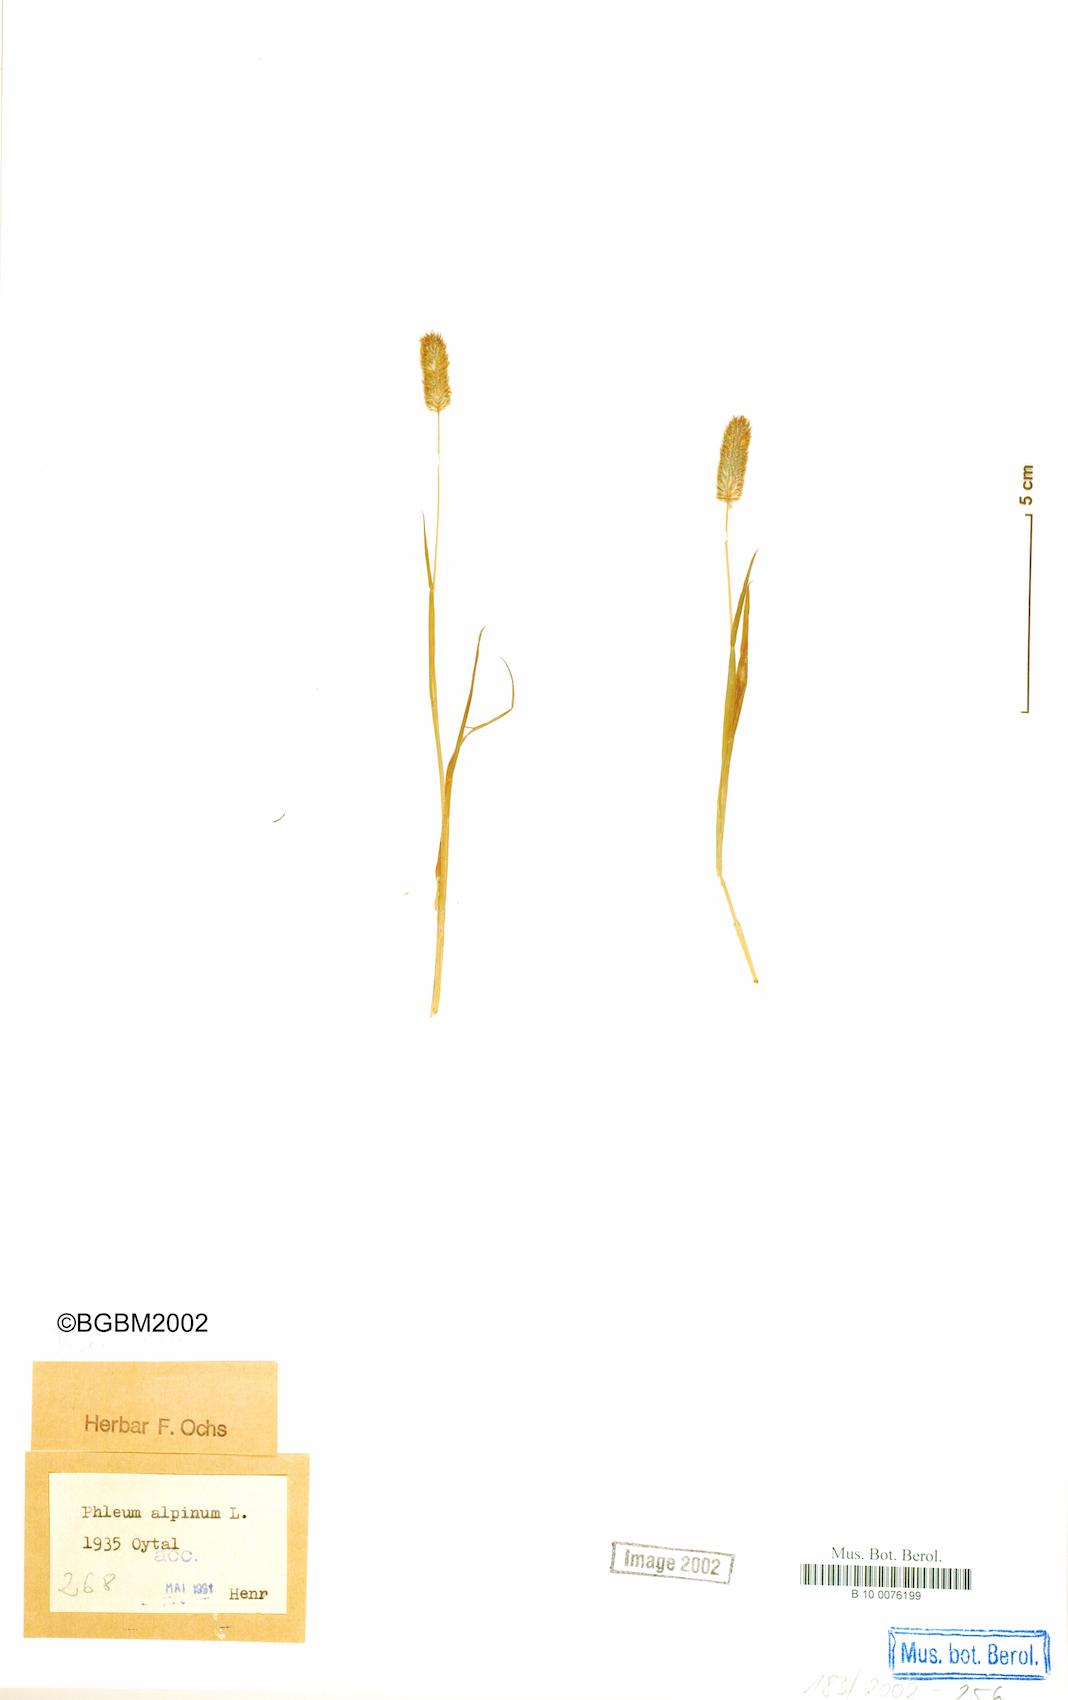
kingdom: Plantae
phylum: Tracheophyta
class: Liliopsida
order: Poales
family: Poaceae
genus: Phleum
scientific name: Phleum alpinum
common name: Alpine cat's-tail
